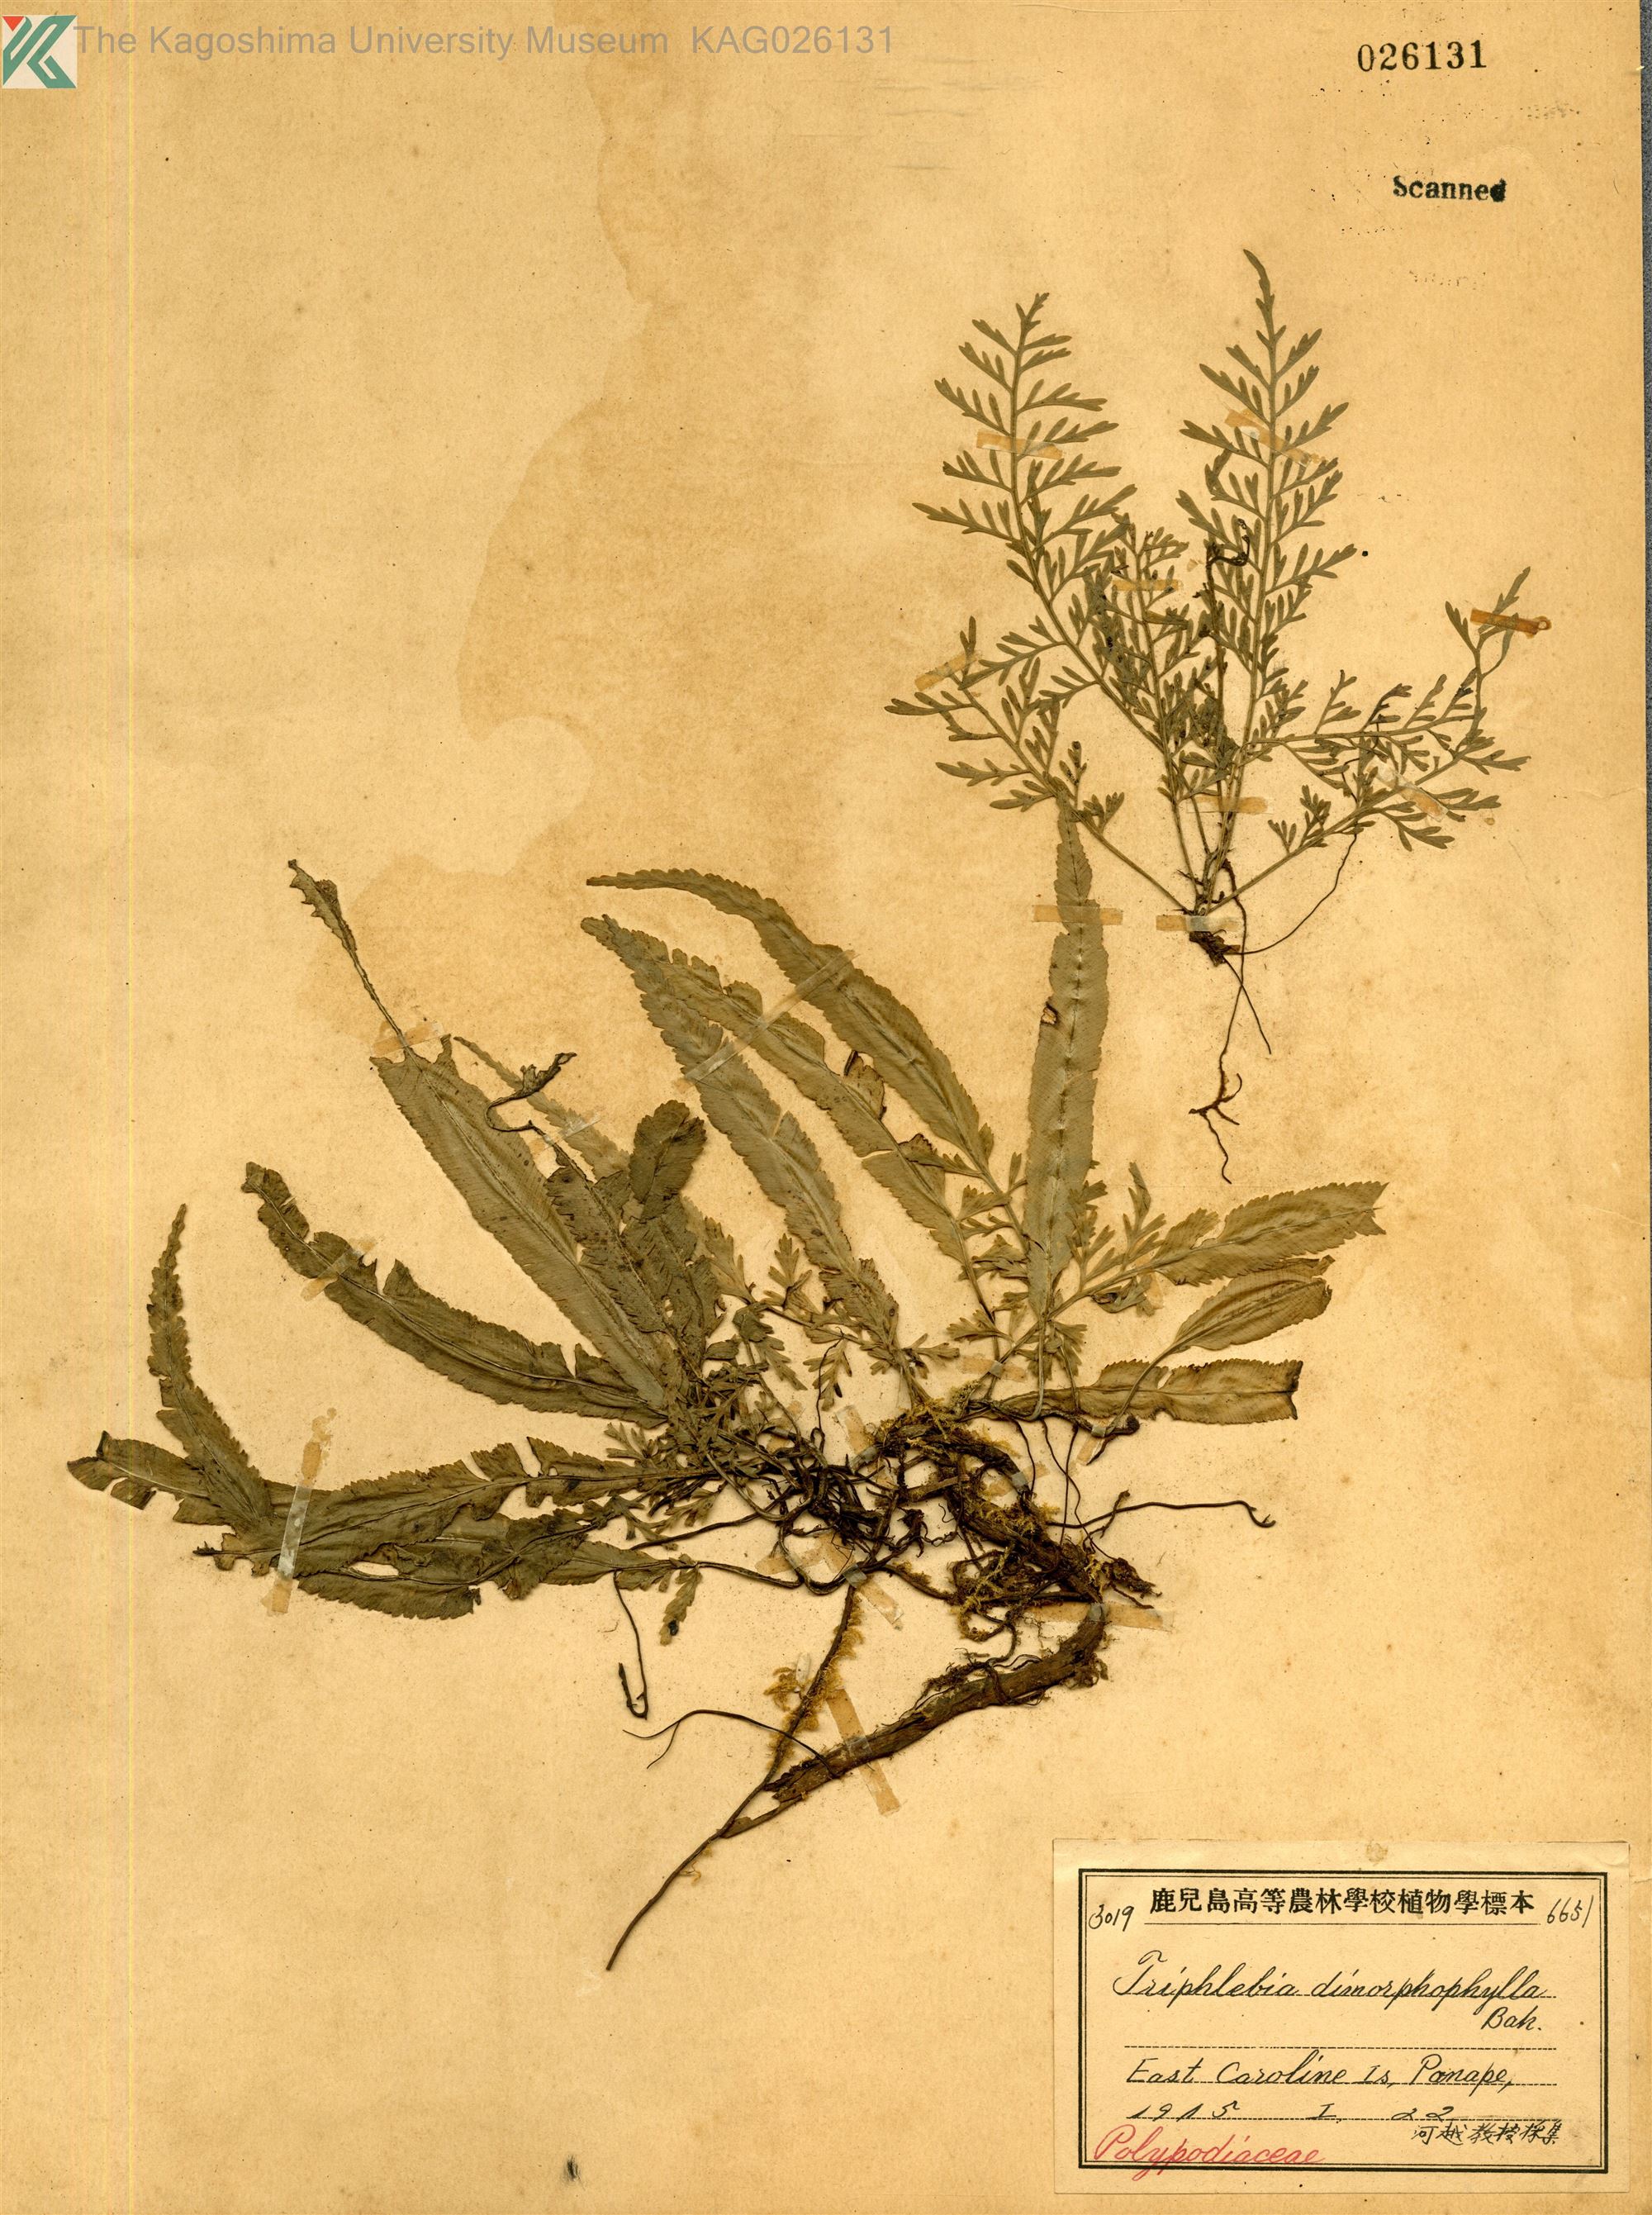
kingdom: Plantae
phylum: Tracheophyta
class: Polypodiopsida
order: Polypodiales
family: Aspleniaceae
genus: Asplenium
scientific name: Asplenium scolopendropsis
